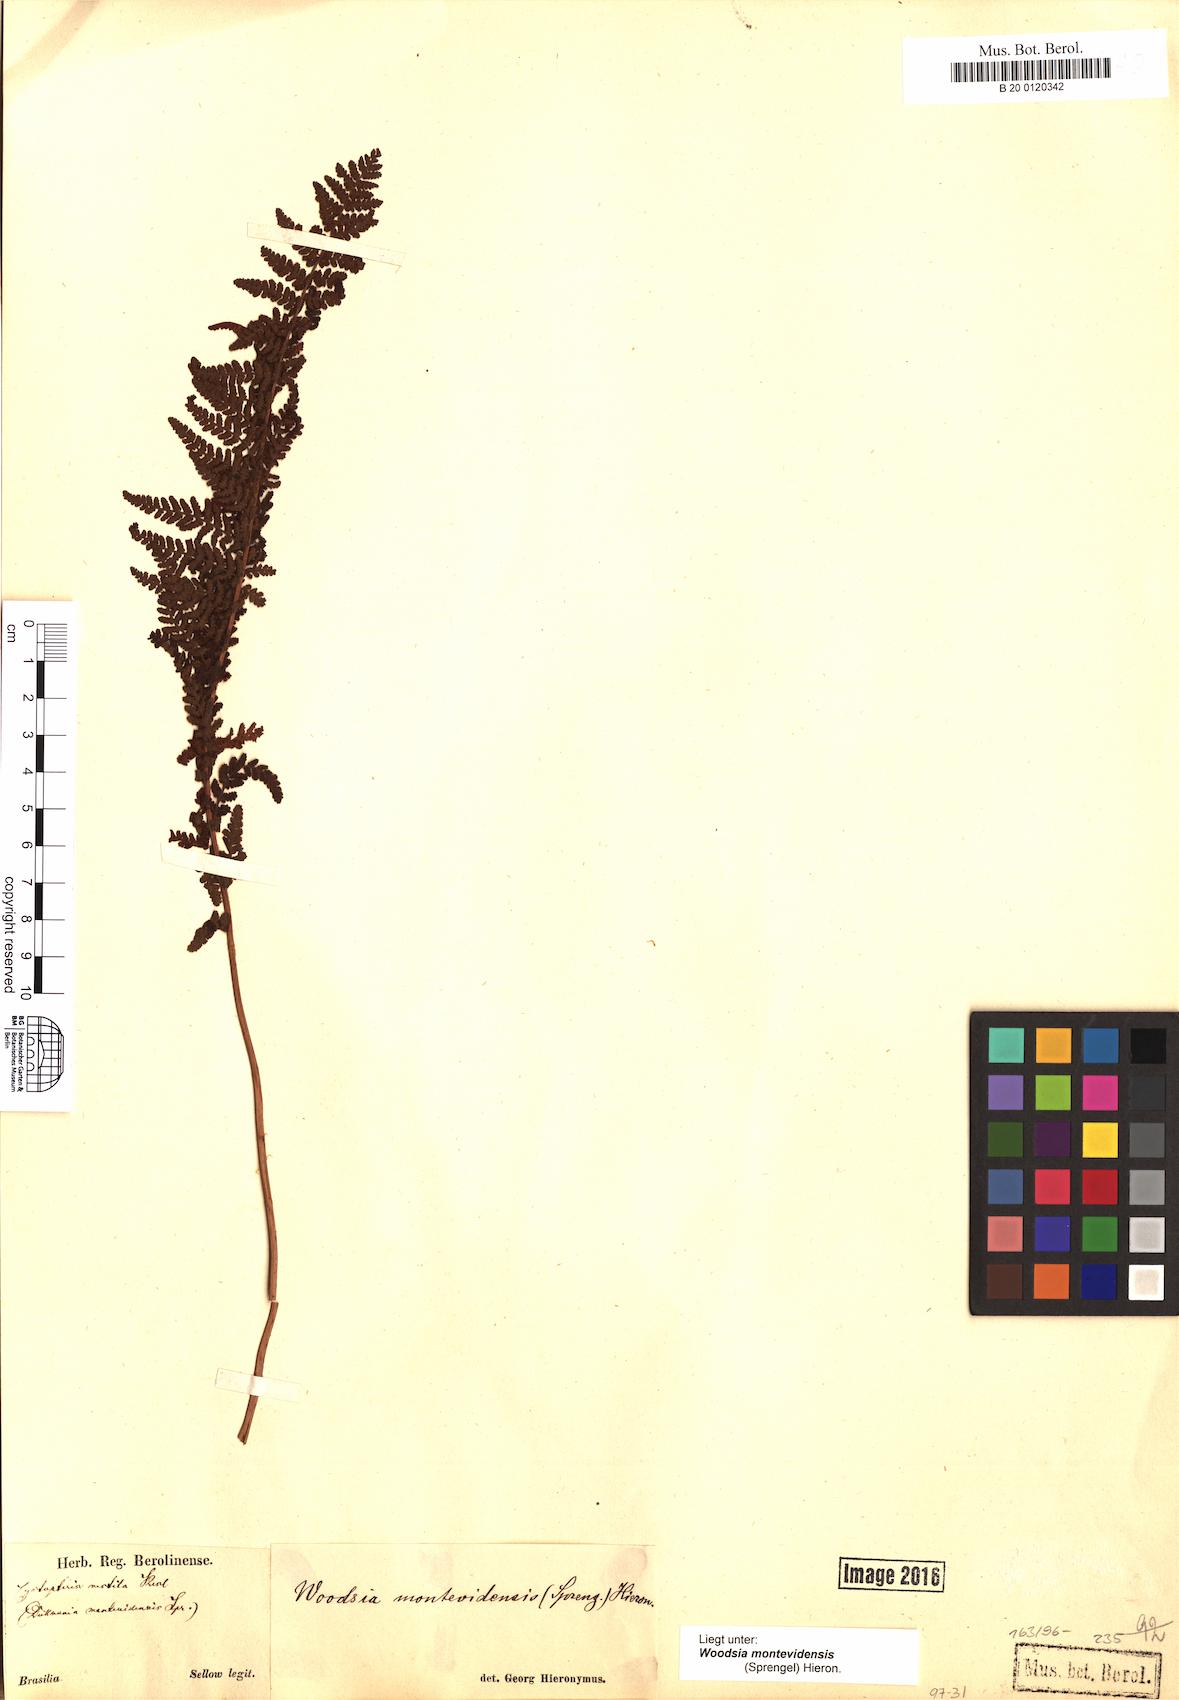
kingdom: Plantae
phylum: Tracheophyta
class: Polypodiopsida
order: Polypodiales
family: Woodsiaceae
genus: Physematium
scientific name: Physematium montevidense
